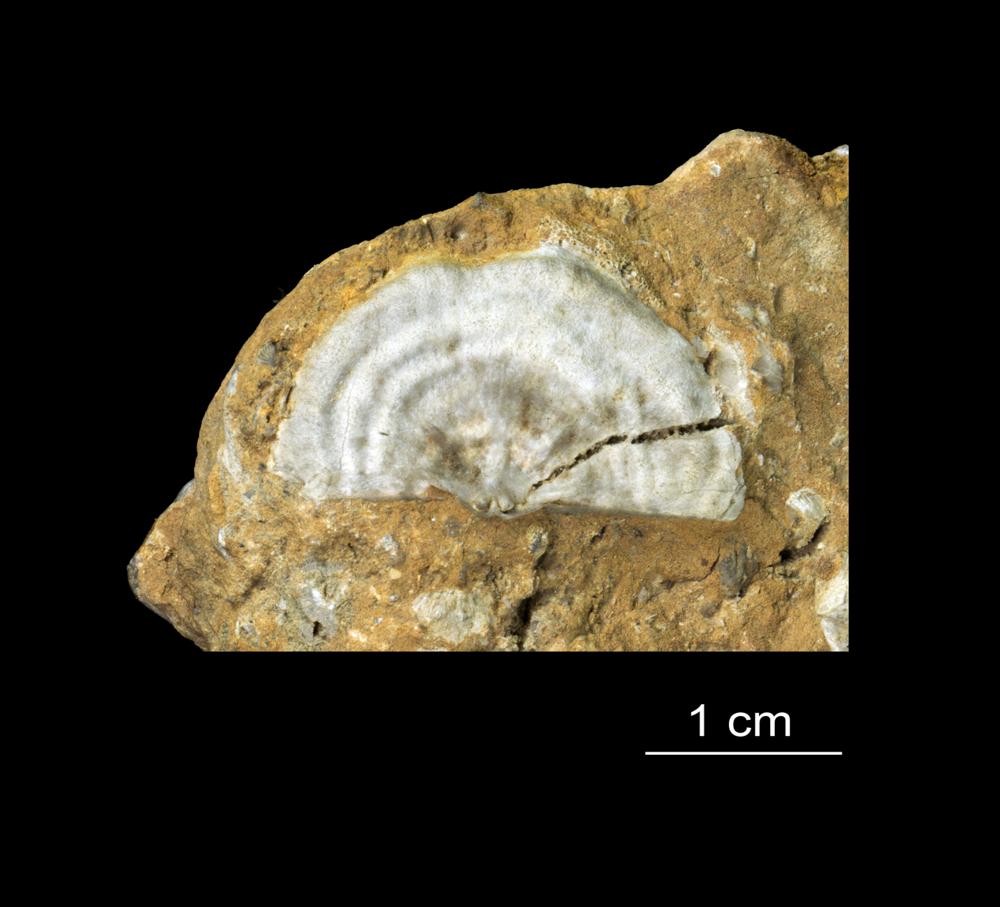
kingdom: Animalia
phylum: Brachiopoda
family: Leptaenidae
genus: Septomena
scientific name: Septomena Leptaena juvenilis
